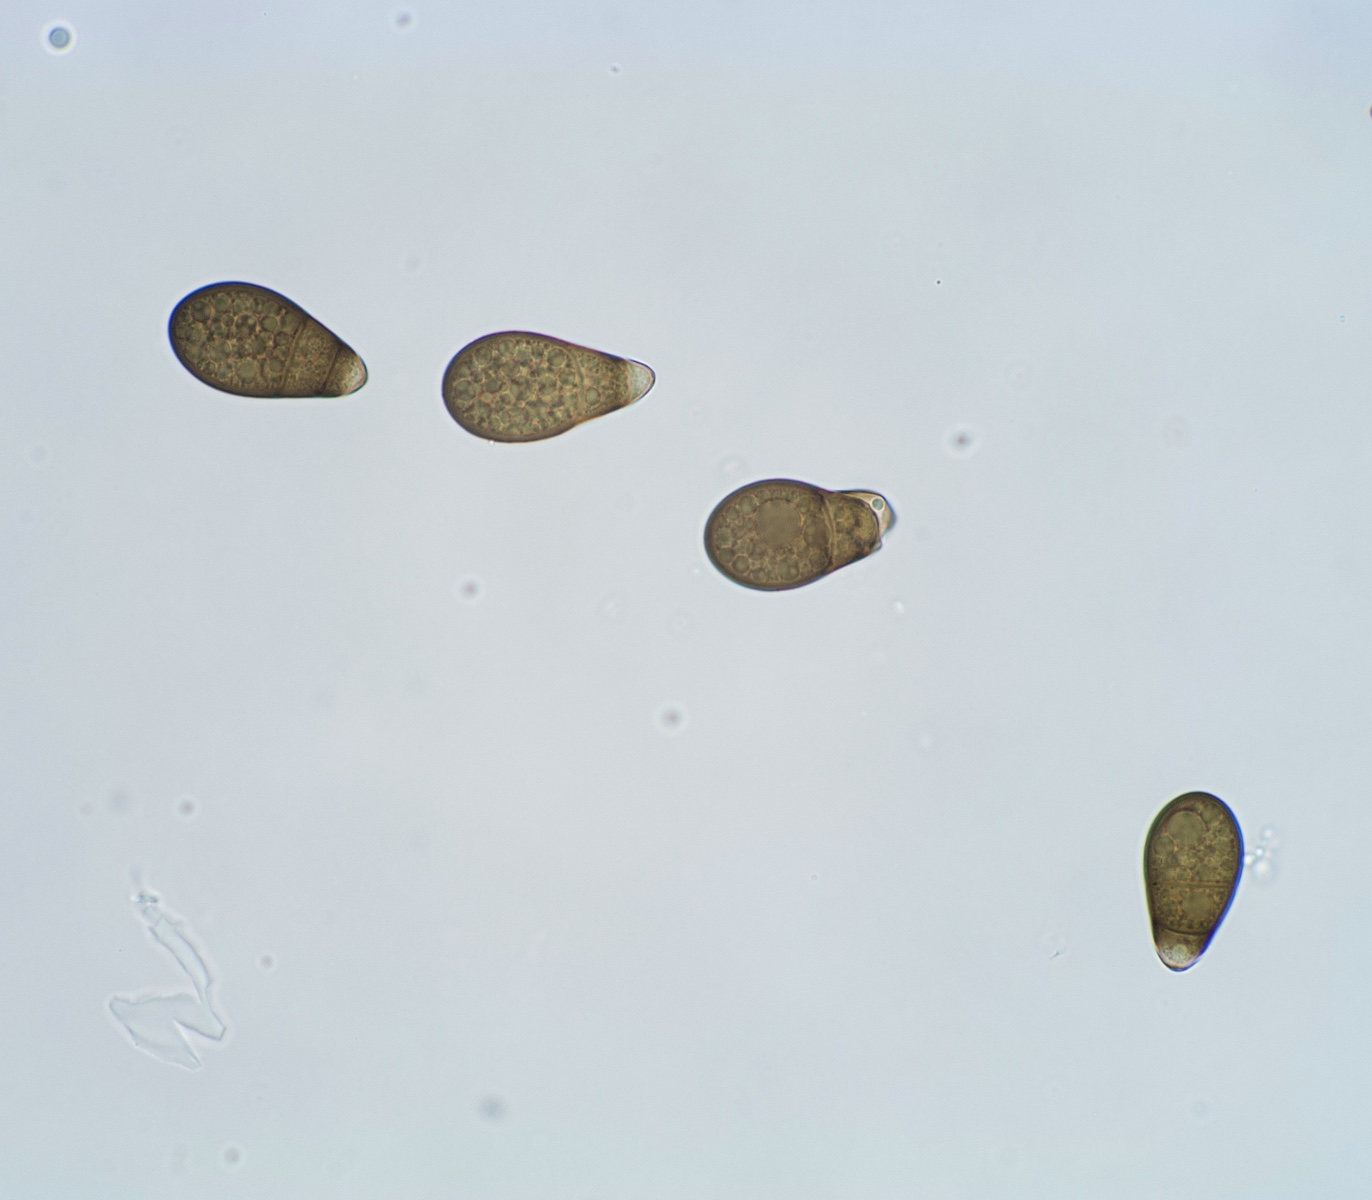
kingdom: Fungi
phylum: Ascomycota
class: Dothideomycetes
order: Pleosporales
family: Neohendersoniaceae
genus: Neohendersonia
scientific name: Neohendersonia kickxii
